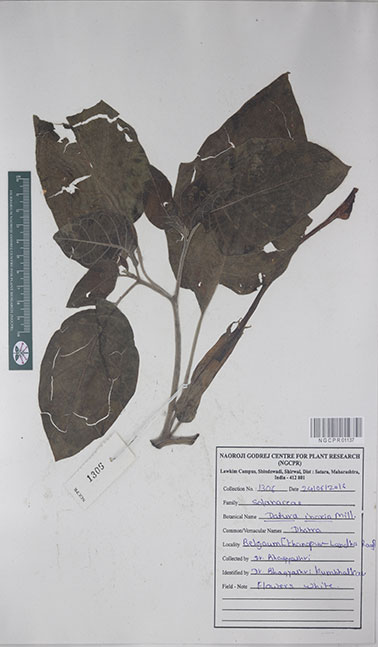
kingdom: Plantae
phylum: Tracheophyta
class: Magnoliopsida
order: Solanales
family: Solanaceae
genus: Datura
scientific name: Datura innoxia
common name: Downy thorn-apple
